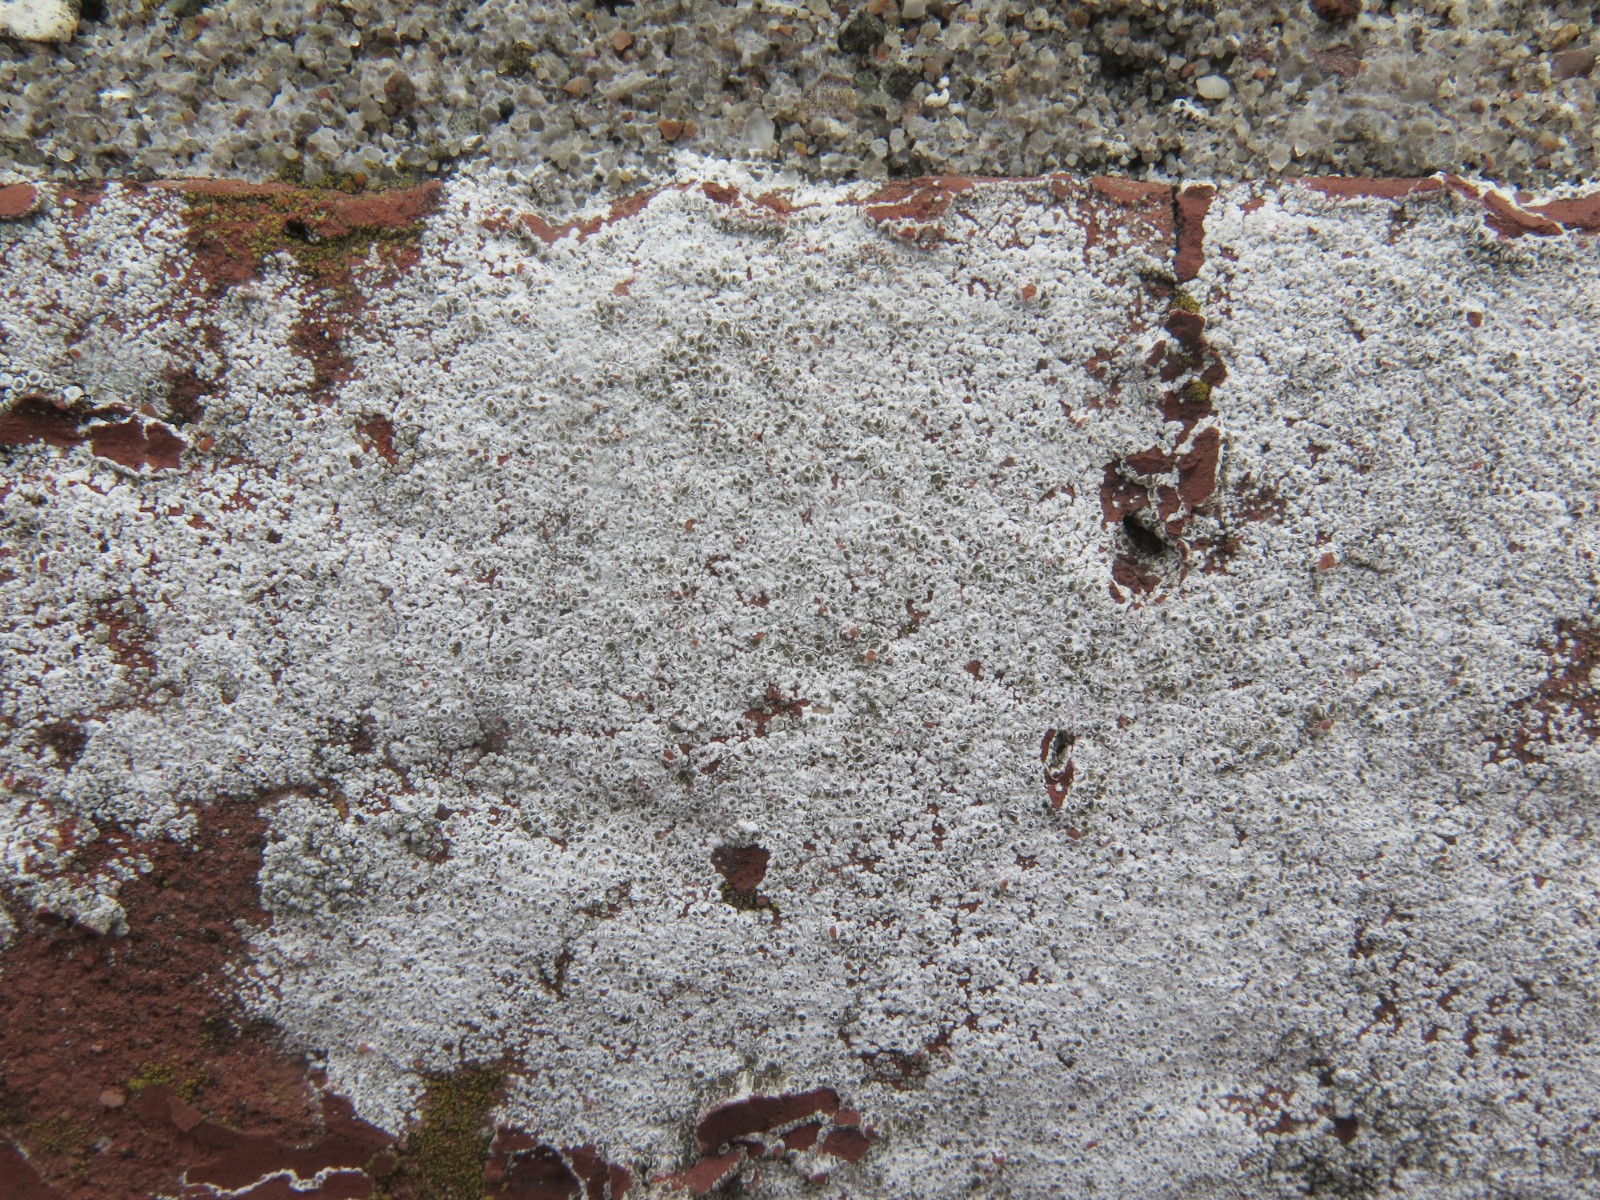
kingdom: Fungi
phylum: Ascomycota
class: Lecanoromycetes
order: Lecanorales
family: Lecanoraceae
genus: Polyozosia
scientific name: Polyozosia albescens
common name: cement-kantskivelav
